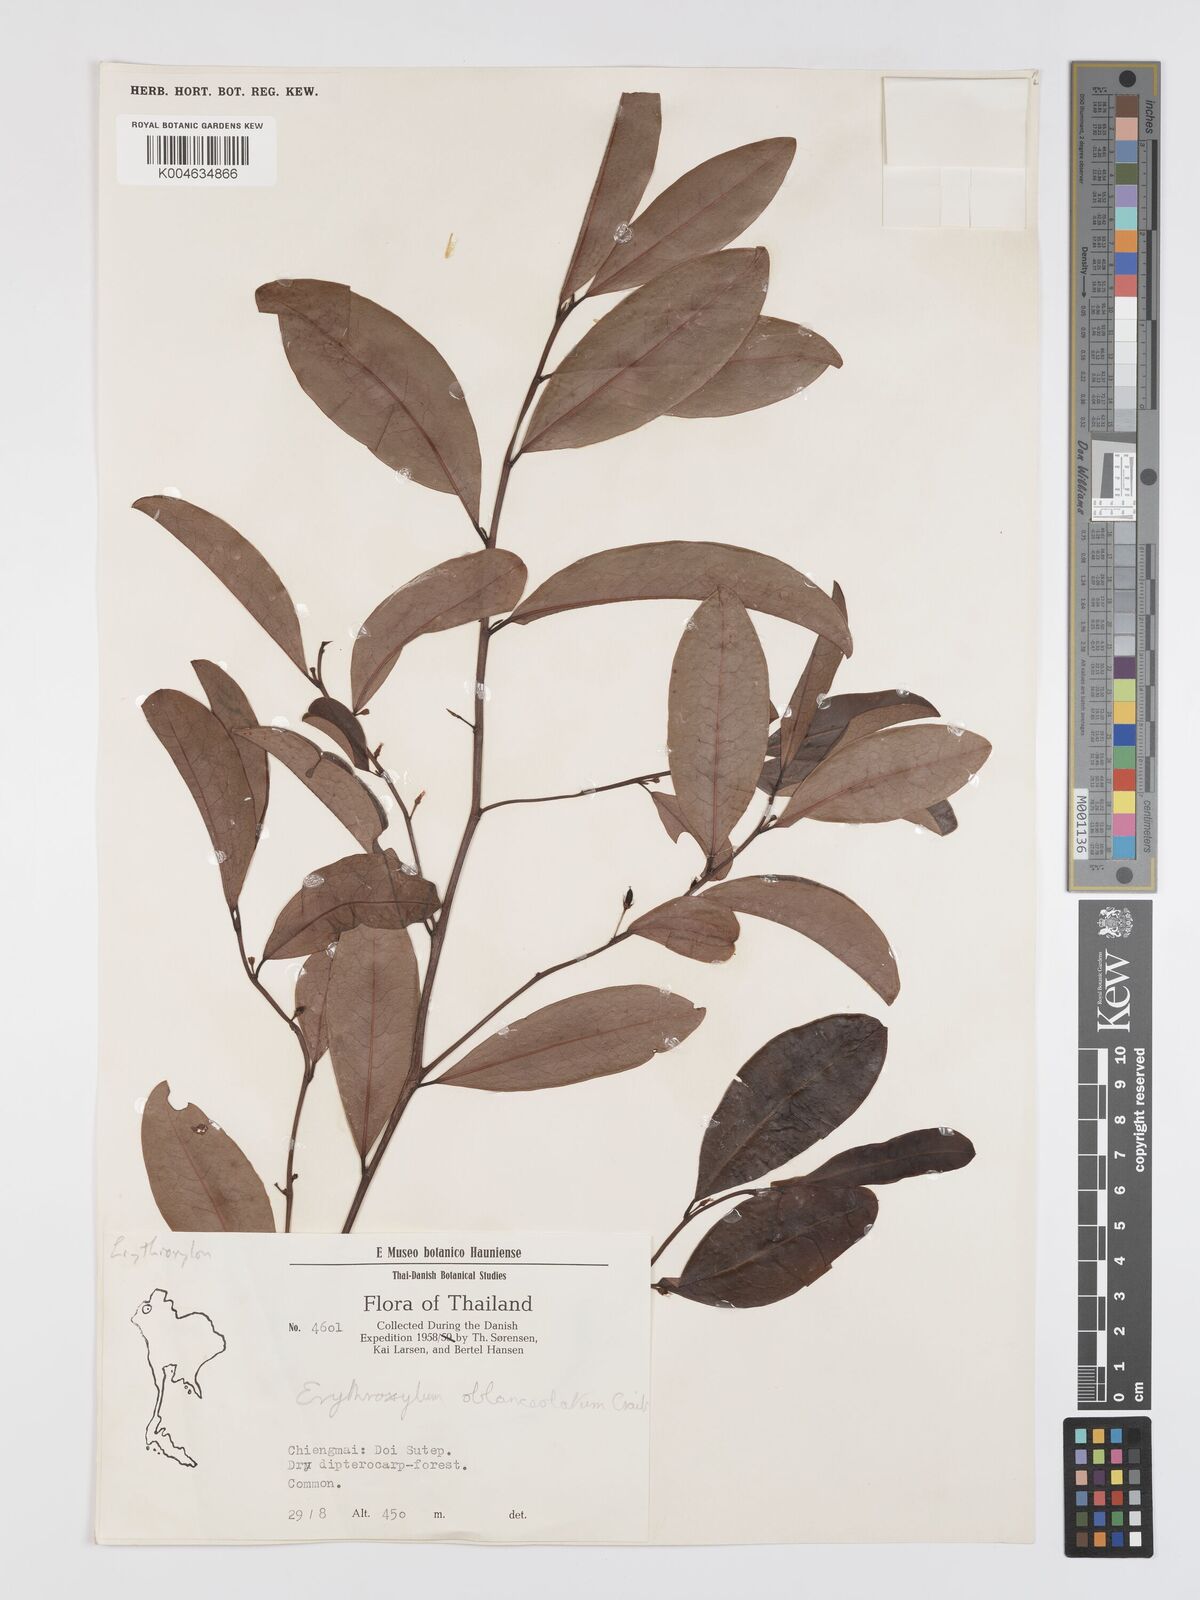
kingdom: Plantae
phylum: Tracheophyta
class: Magnoliopsida
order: Malpighiales
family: Erythroxylaceae
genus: Erythroxylum
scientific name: Erythroxylum cuneatum
